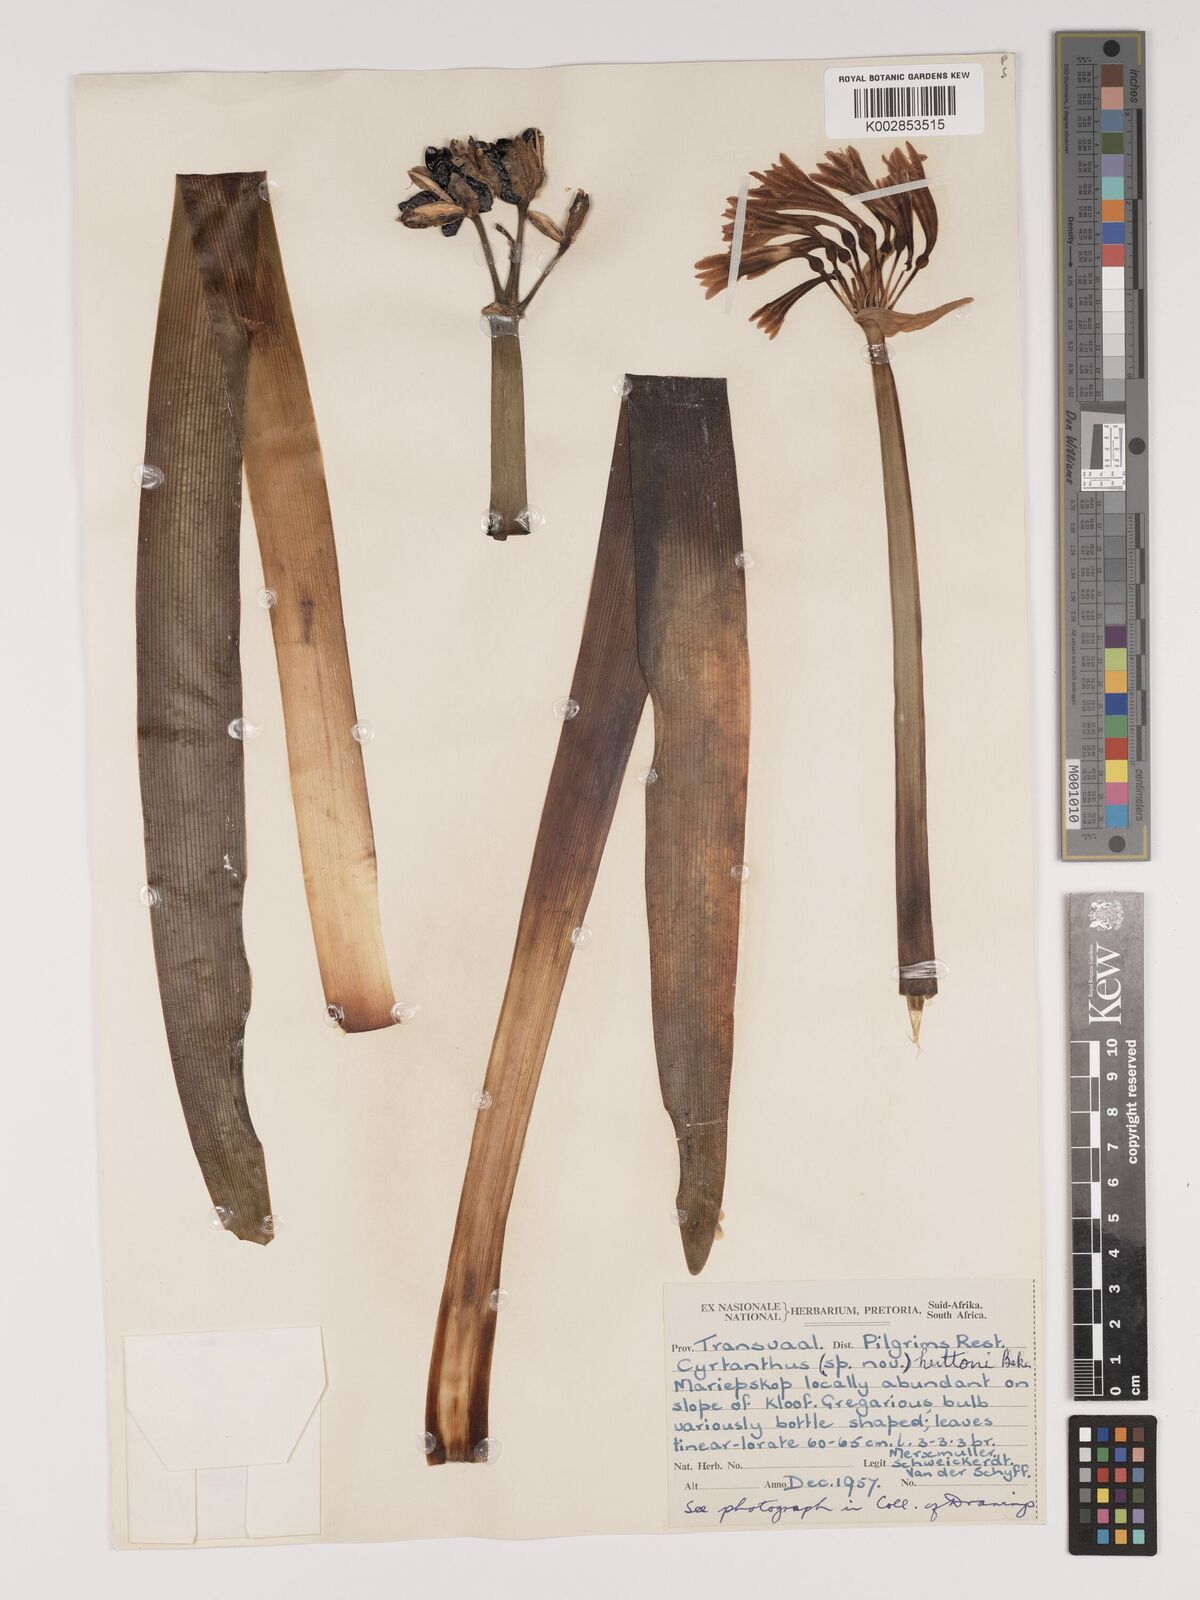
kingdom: Plantae
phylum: Tracheophyta
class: Liliopsida
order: Asparagales
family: Amaryllidaceae
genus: Cyrtanthus
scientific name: Cyrtanthus huttonii
